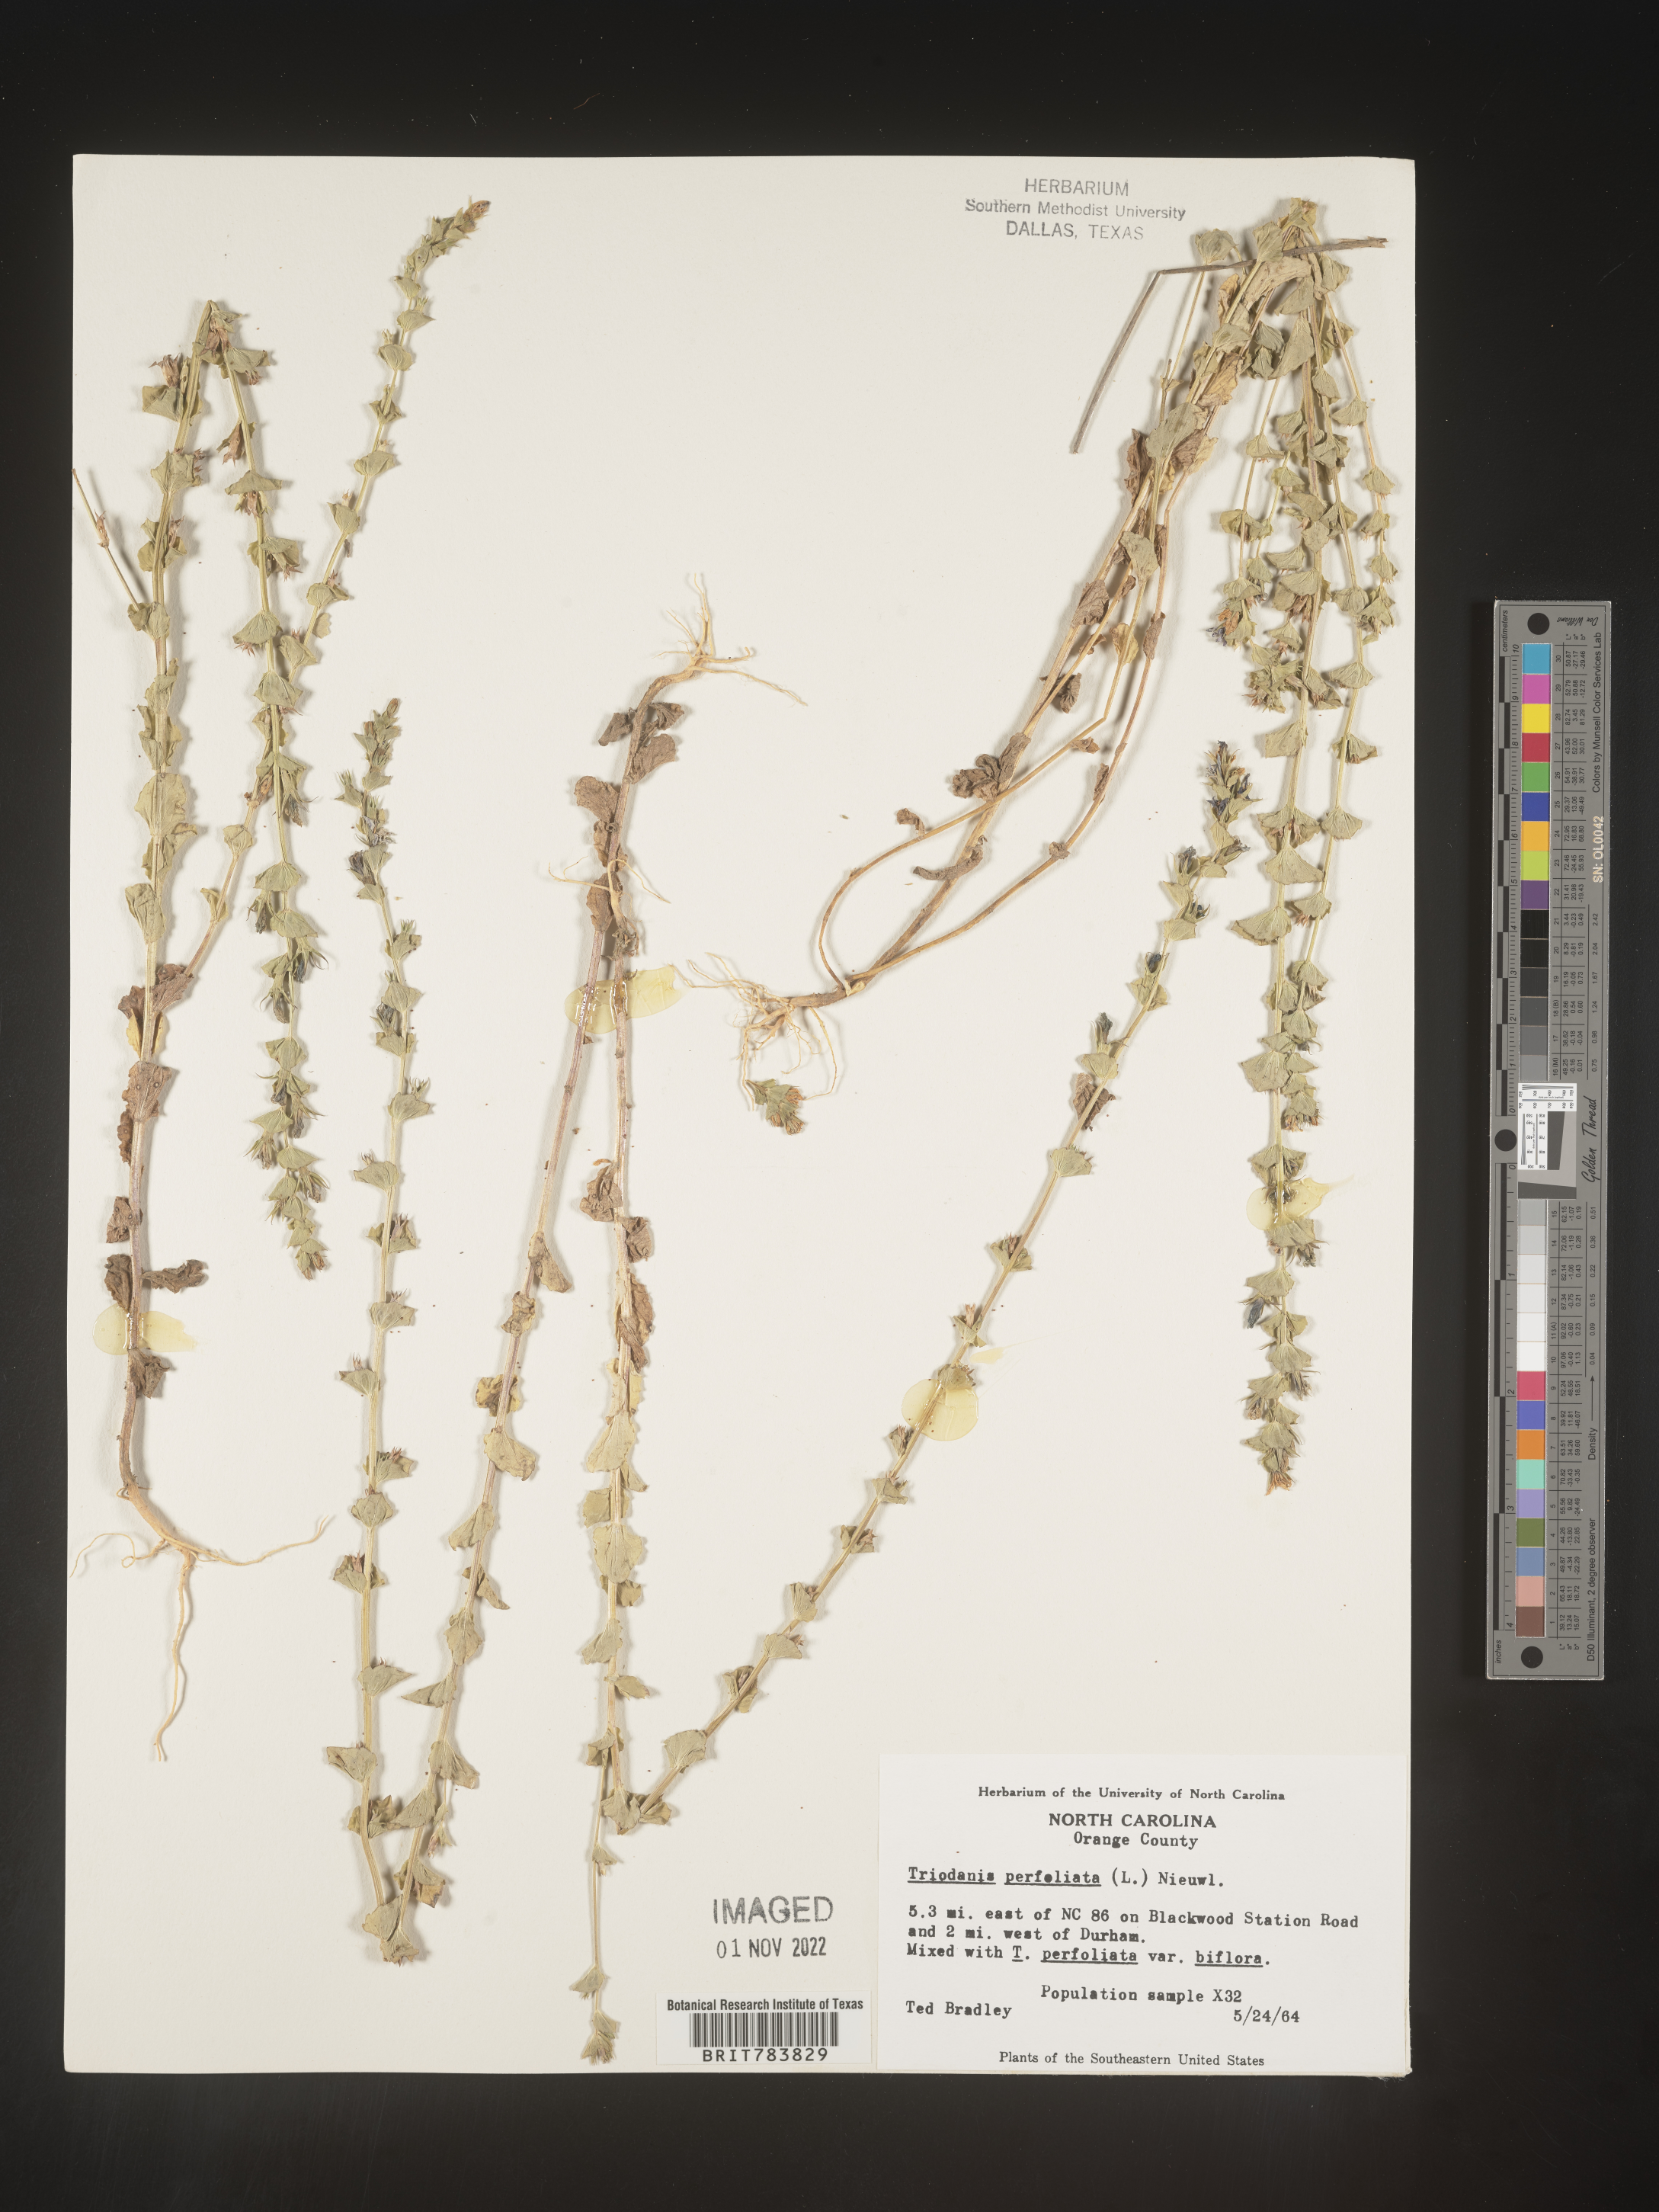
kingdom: Plantae
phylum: Tracheophyta
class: Magnoliopsida
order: Asterales
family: Campanulaceae
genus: Triodanis
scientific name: Triodanis perfoliata
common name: Clasping venus' looking-glass
